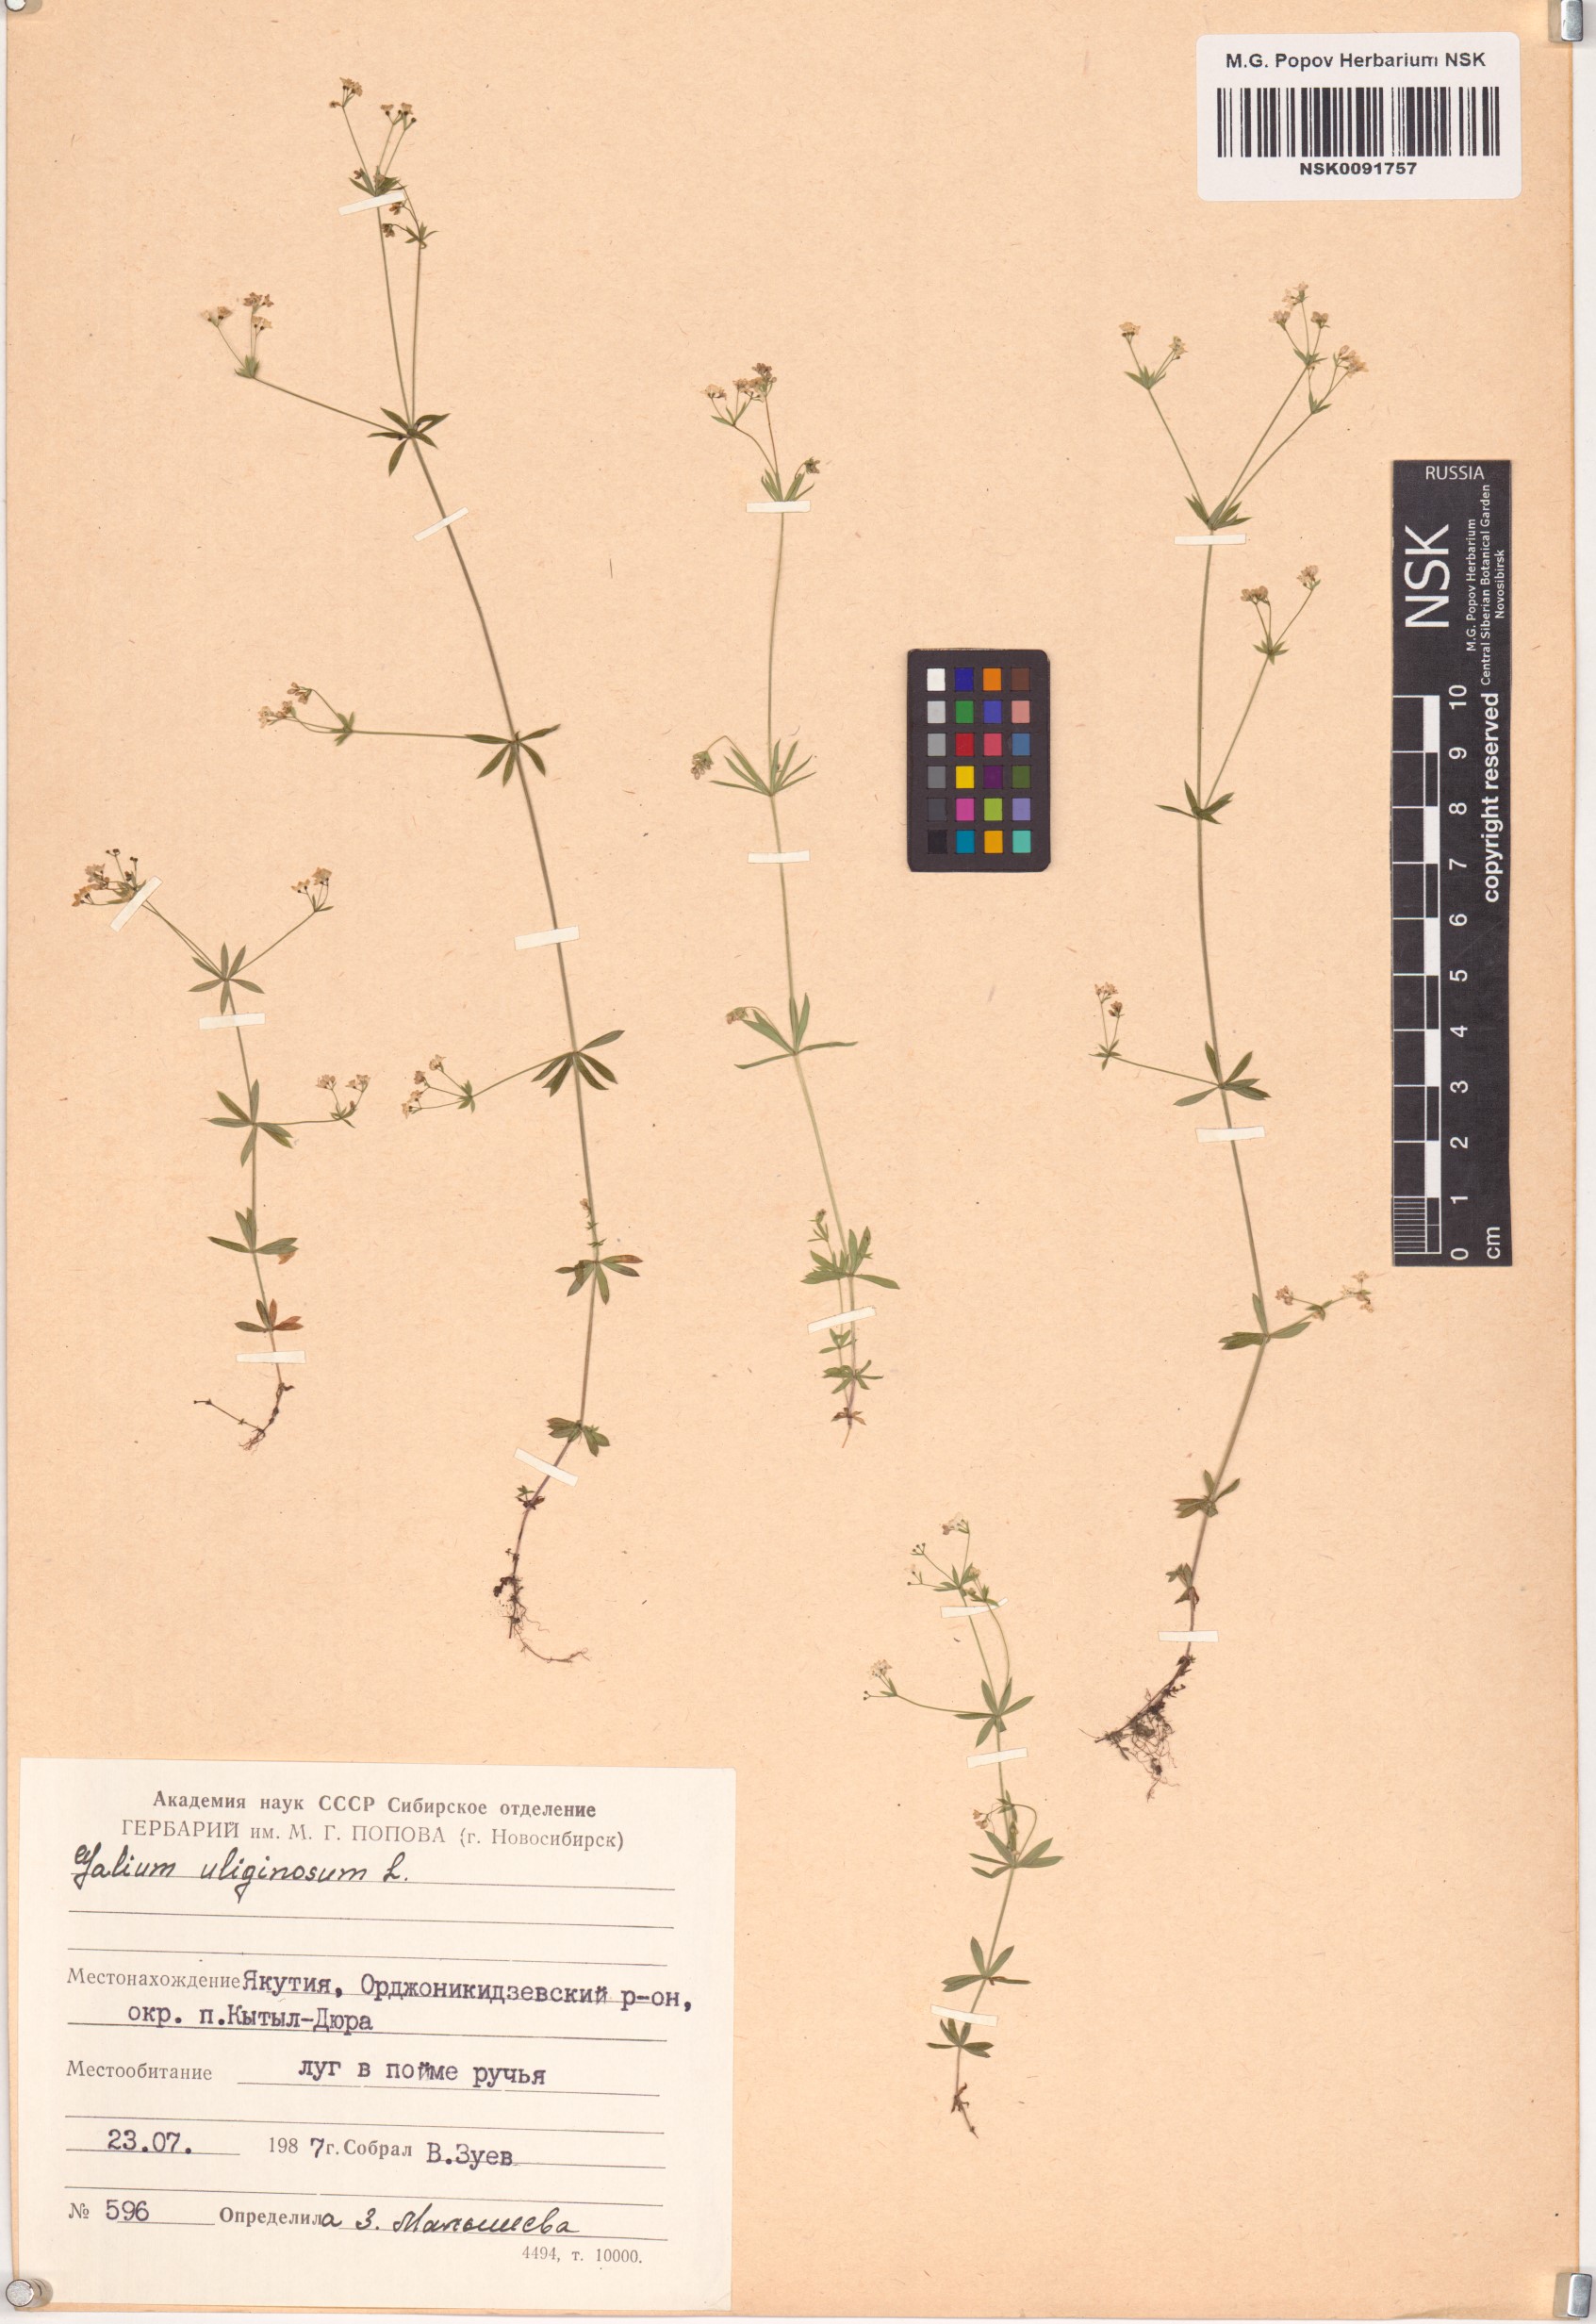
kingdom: Plantae
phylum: Tracheophyta
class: Magnoliopsida
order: Gentianales
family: Rubiaceae
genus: Galium
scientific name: Galium uliginosum
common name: Fen bedstraw
